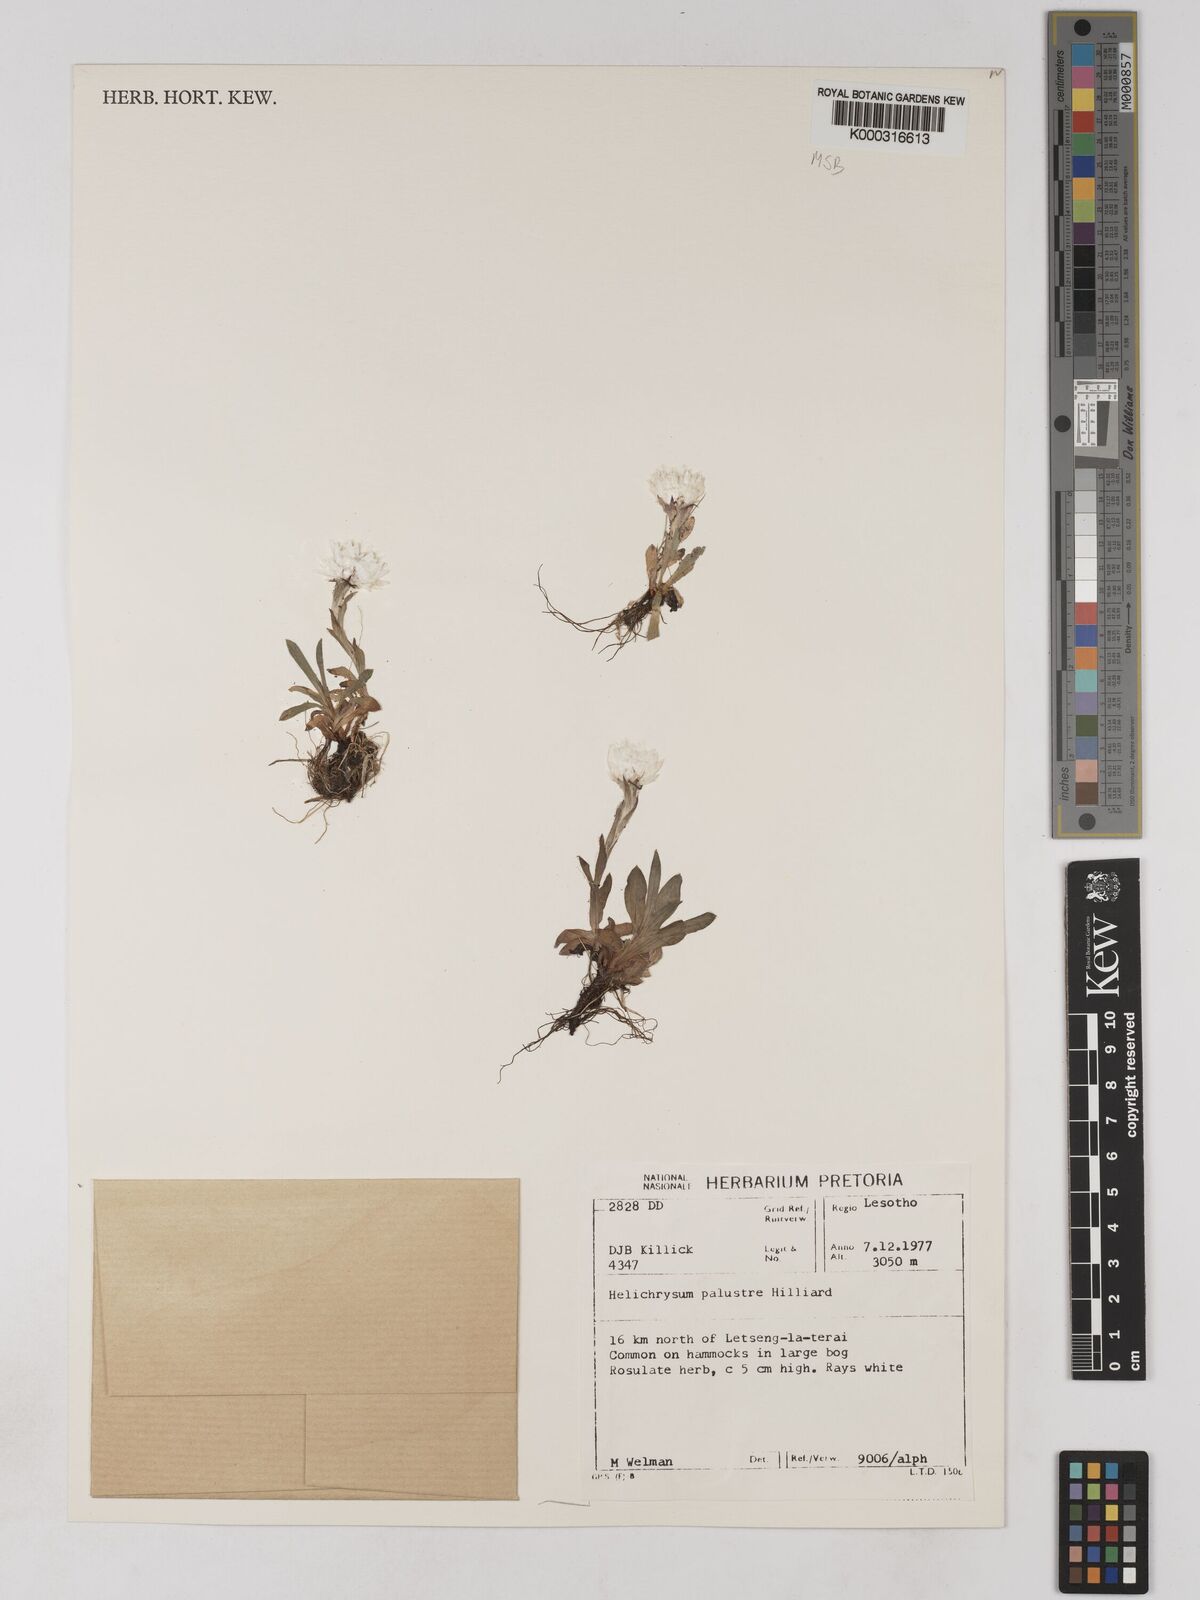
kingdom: Plantae
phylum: Tracheophyta
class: Magnoliopsida
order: Asterales
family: Asteraceae
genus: Helichrysum
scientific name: Helichrysum palustre
